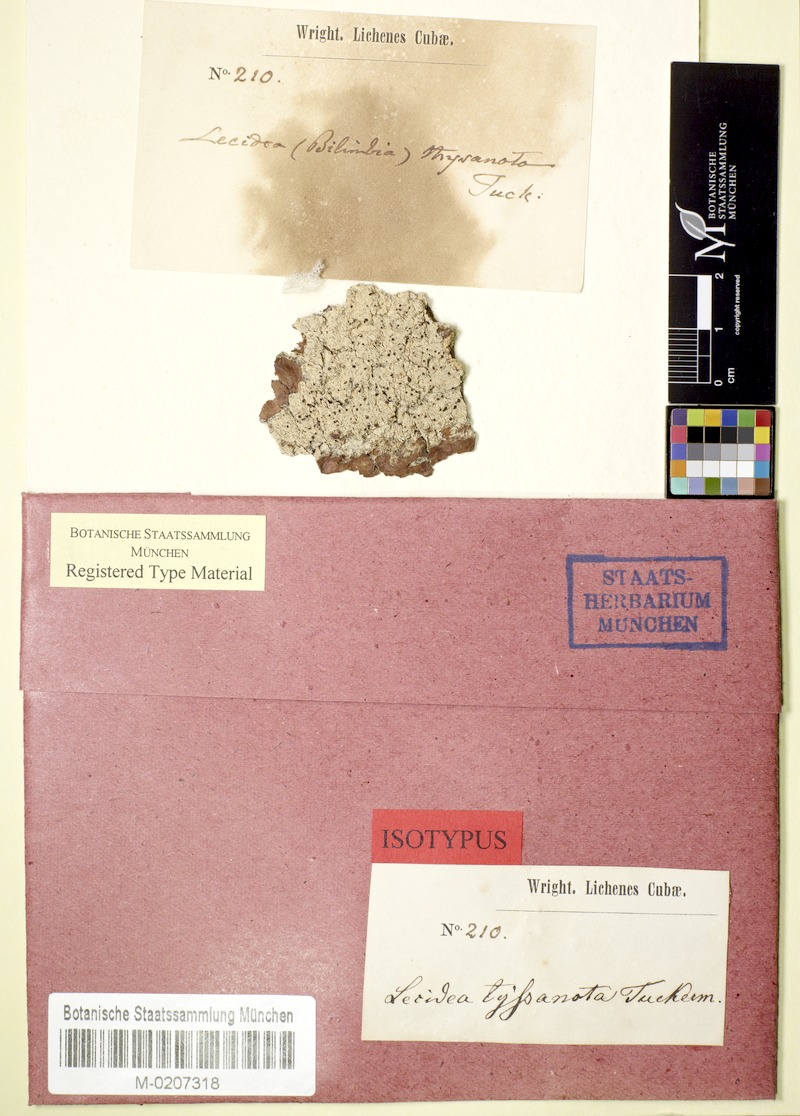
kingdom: Fungi
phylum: Ascomycota
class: Lecanoromycetes
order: Lecanorales
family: Ramalinaceae
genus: Bacidia
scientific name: Bacidia thysanota
